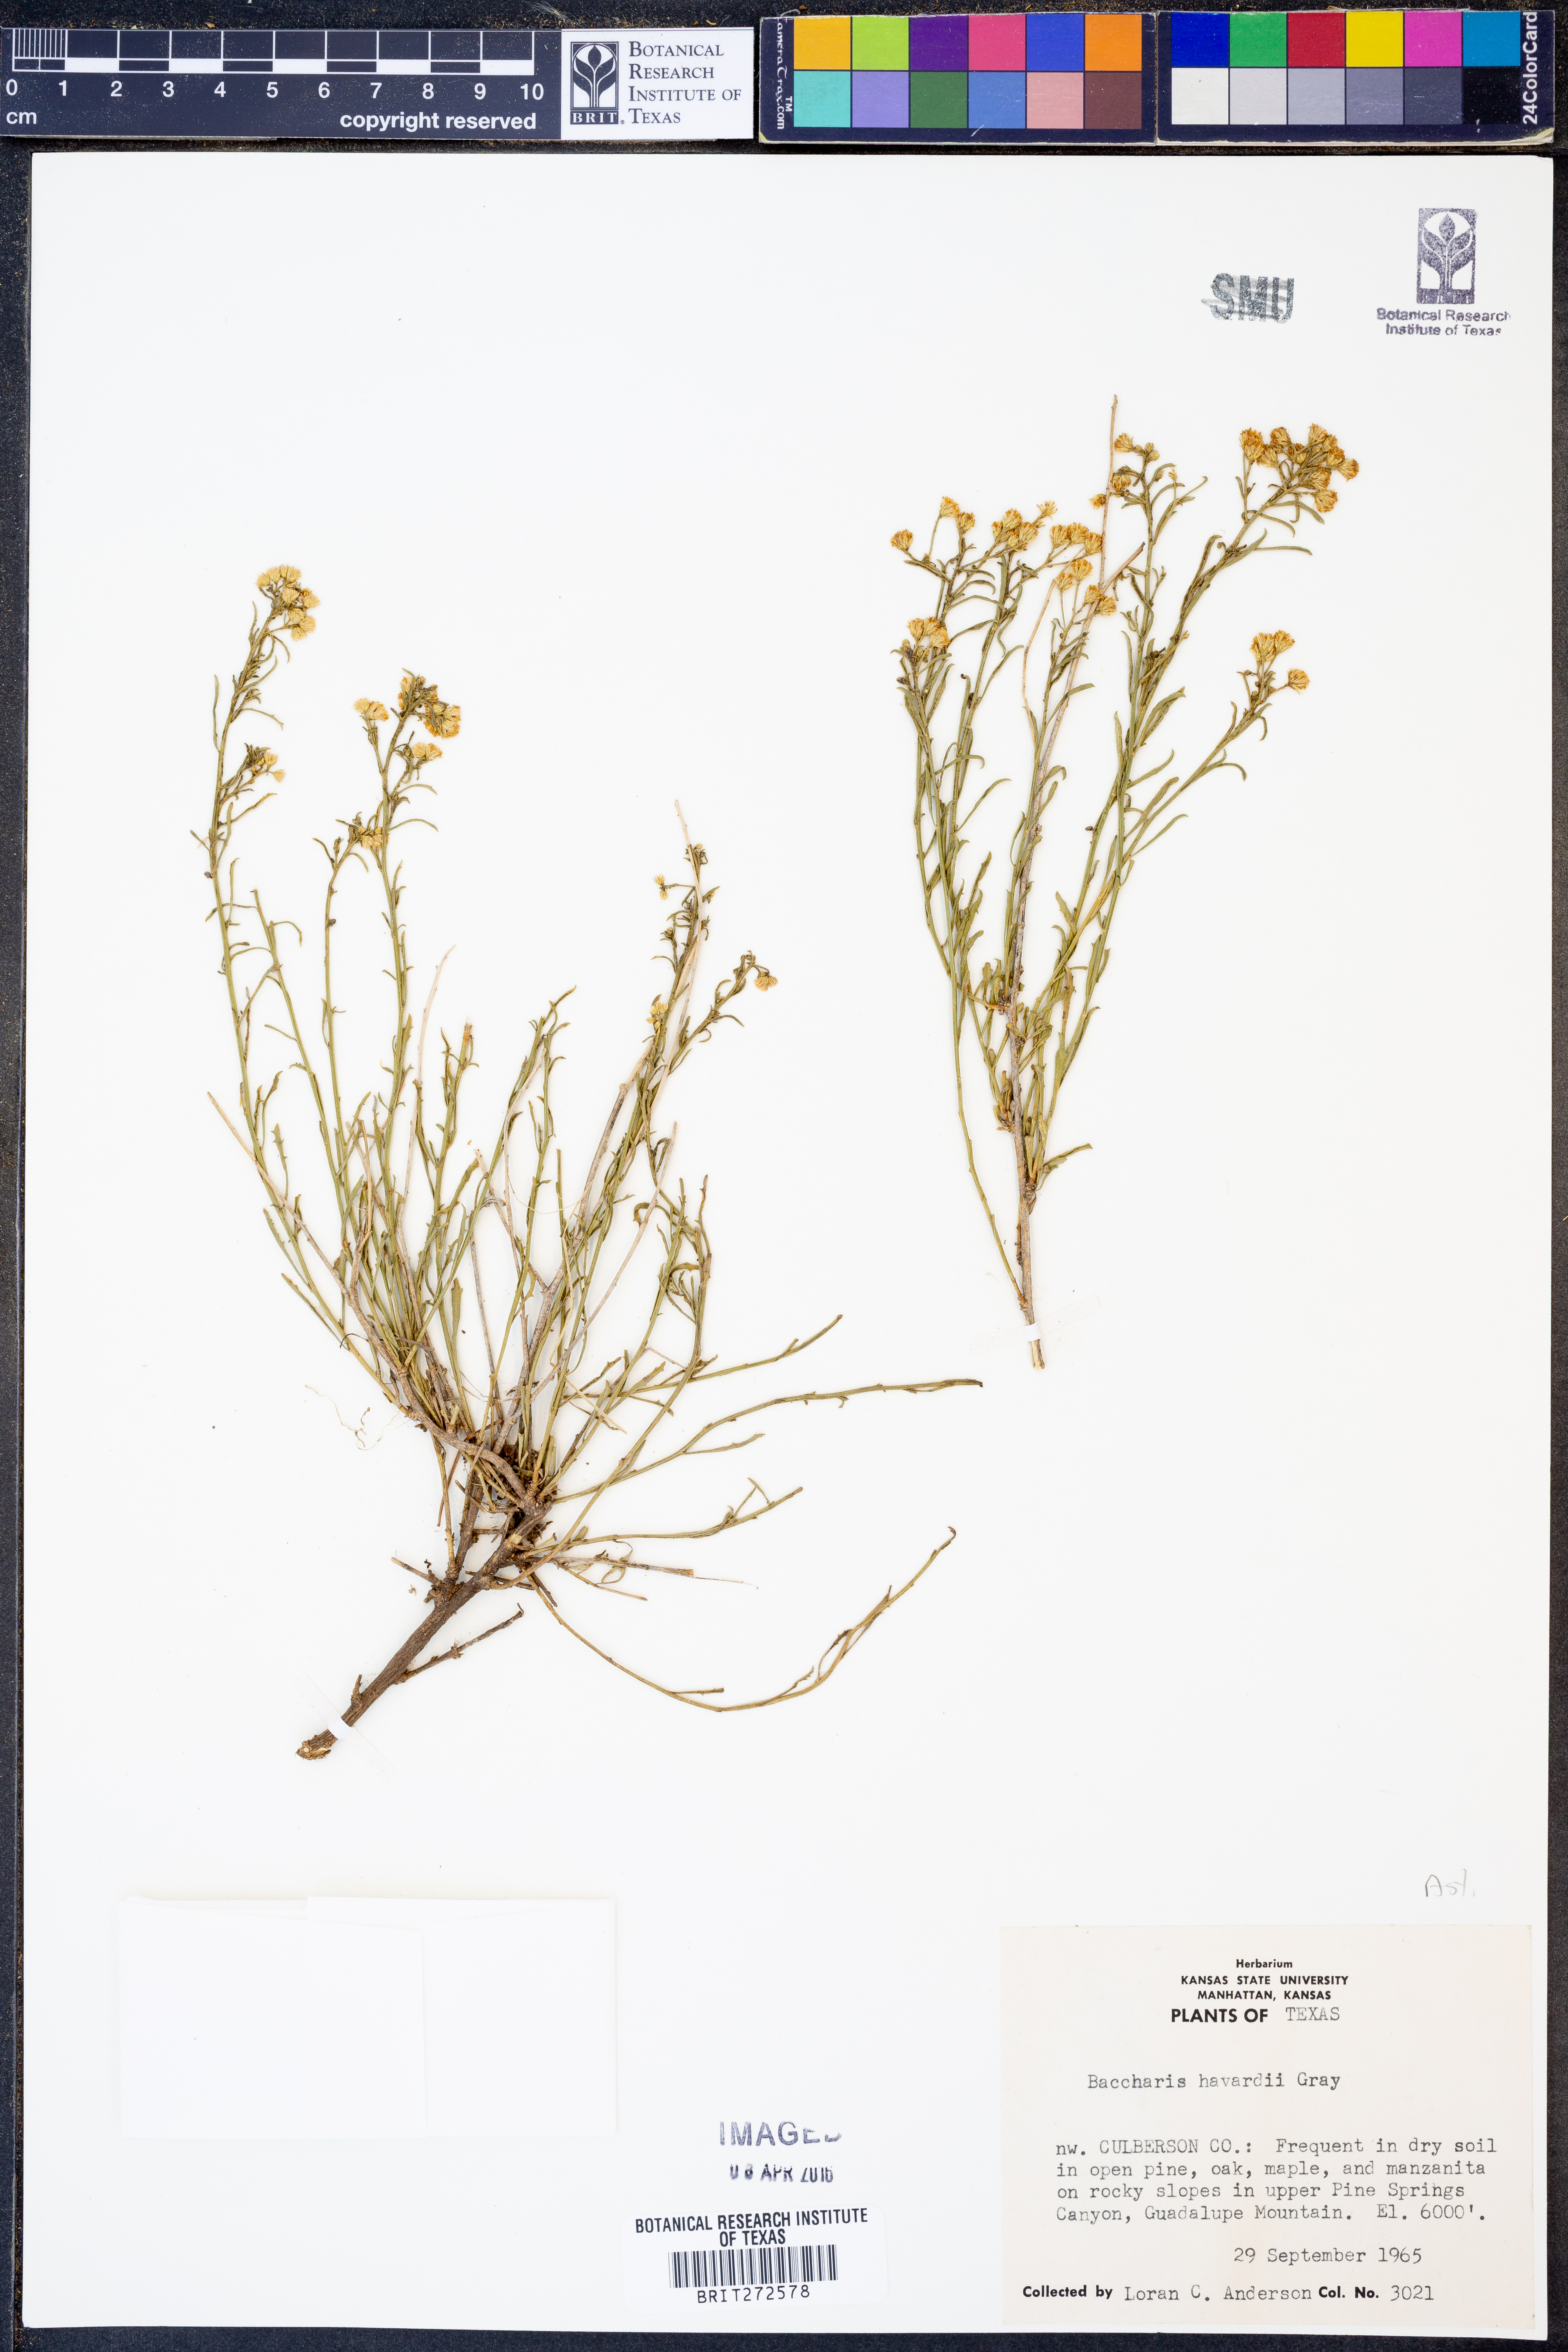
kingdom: Plantae
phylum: Tracheophyta
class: Magnoliopsida
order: Asterales
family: Asteraceae
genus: Baccharis
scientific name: Baccharis havardii
